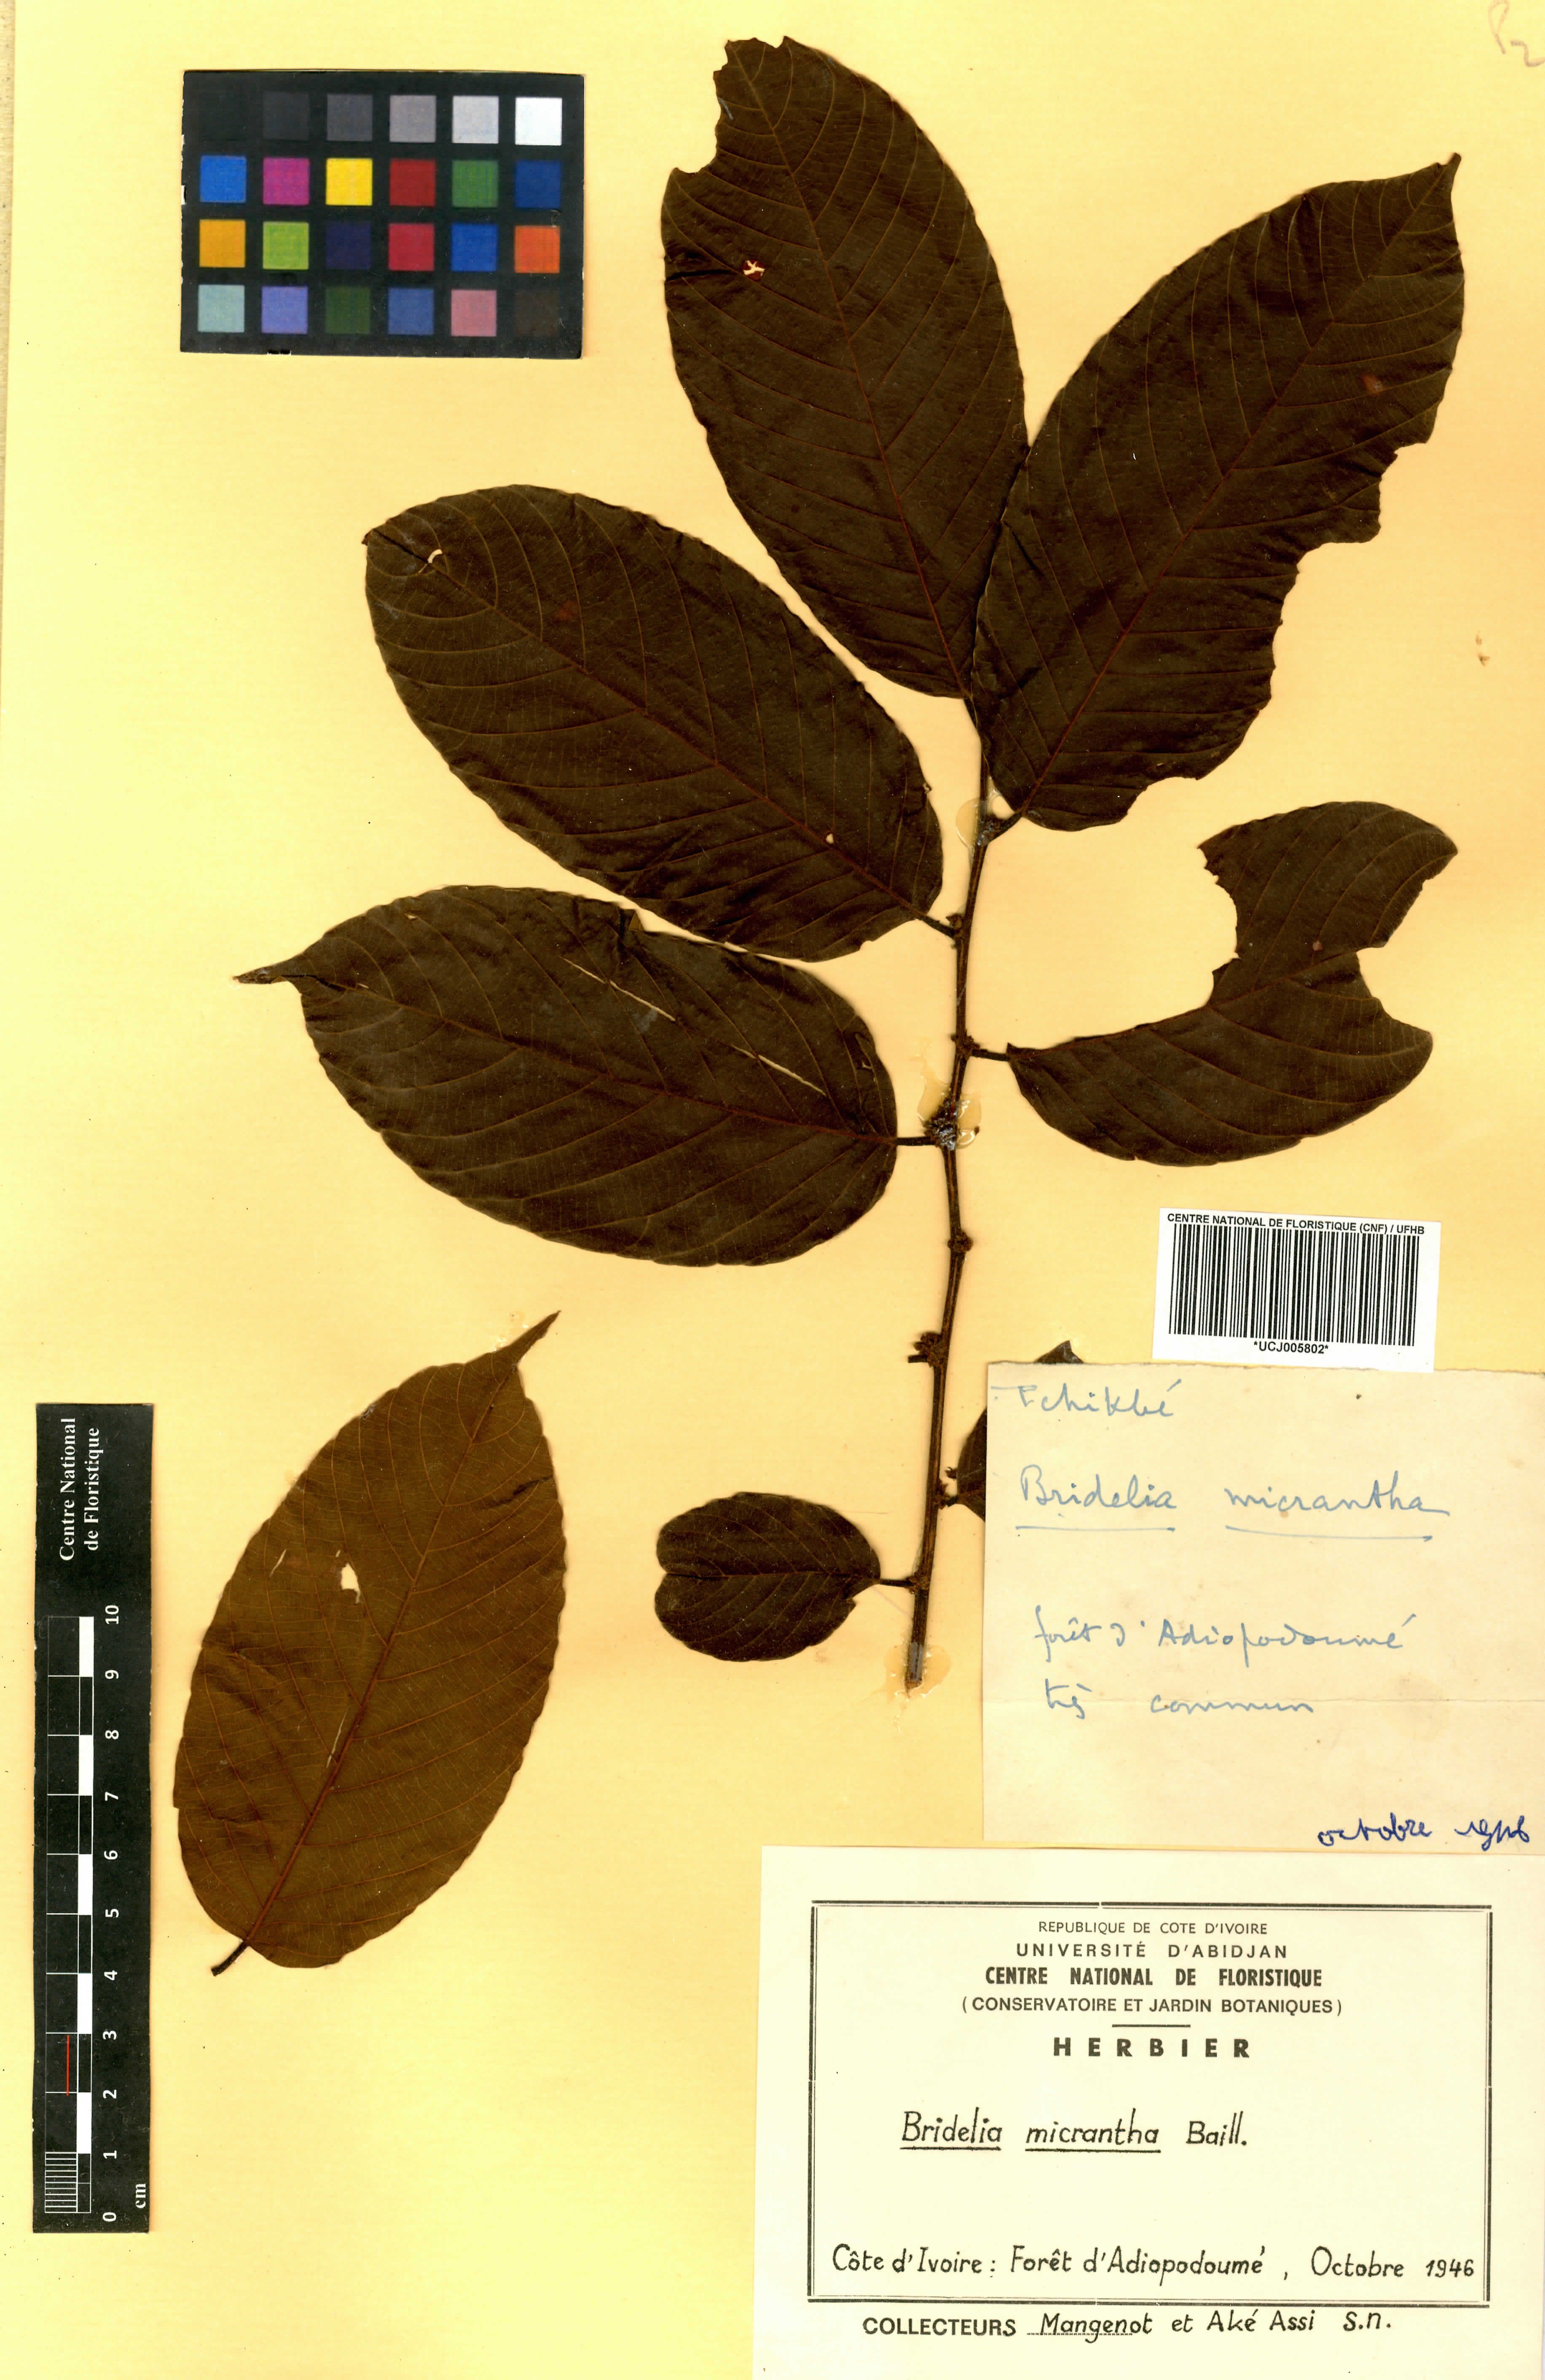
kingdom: Plantae
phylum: Tracheophyta
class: Magnoliopsida
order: Malpighiales
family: Phyllanthaceae
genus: Bridelia
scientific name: Bridelia micrantha
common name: Bridelia
